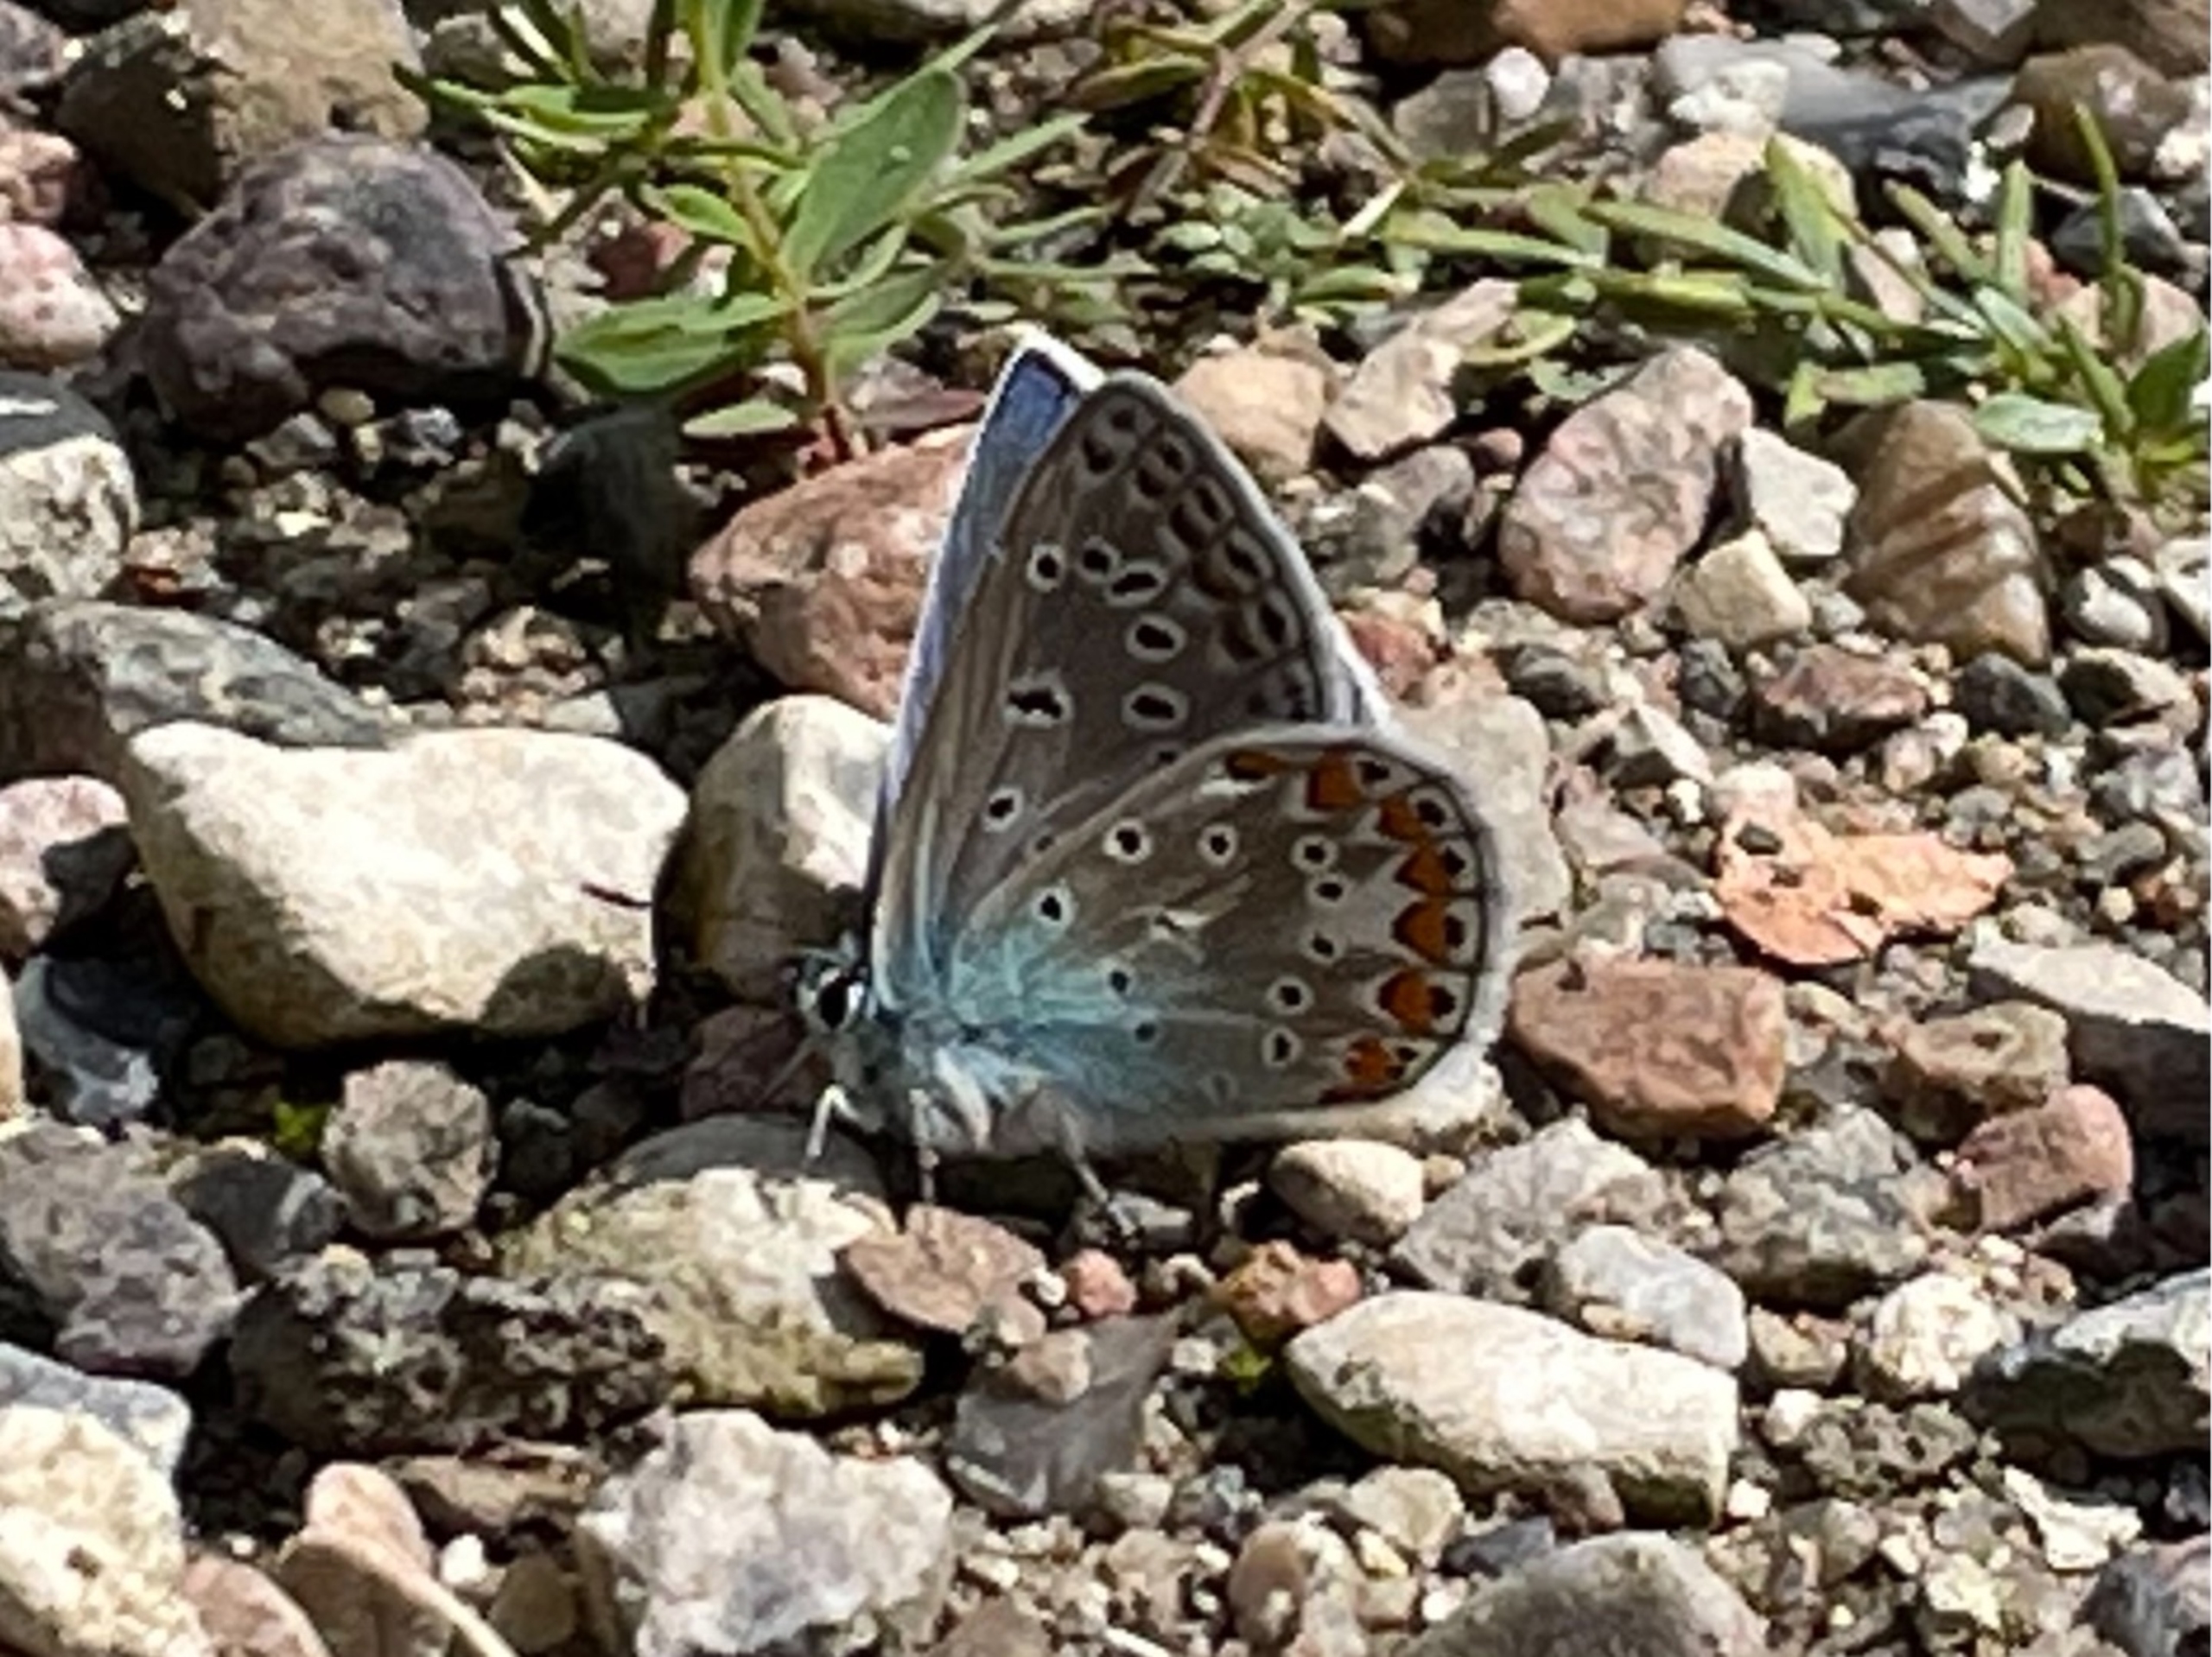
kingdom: Animalia
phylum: Arthropoda
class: Insecta
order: Lepidoptera
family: Lycaenidae
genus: Polyommatus
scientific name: Polyommatus icarus
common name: Almindelig blåfugl
